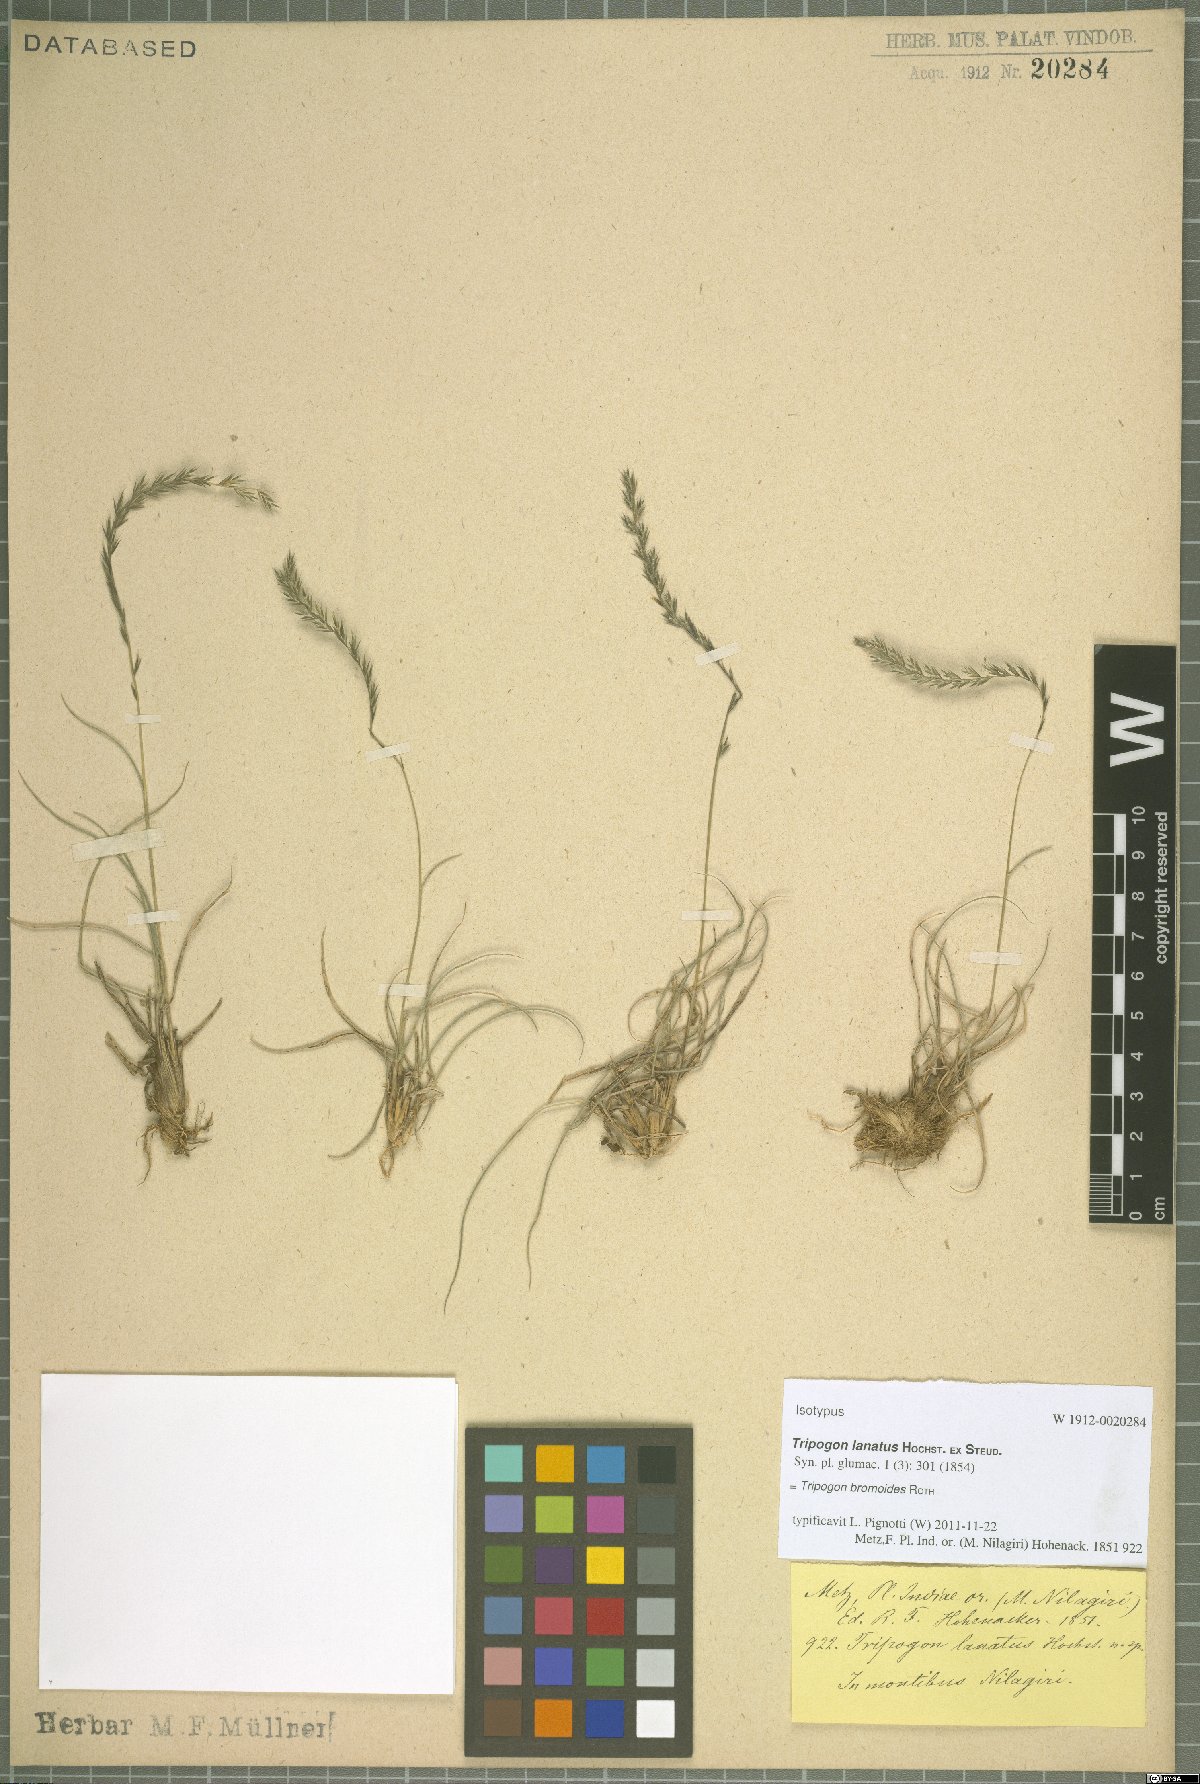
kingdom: Plantae
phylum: Tracheophyta
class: Liliopsida
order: Poales
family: Poaceae
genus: Tripogon
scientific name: Tripogon bromoides
